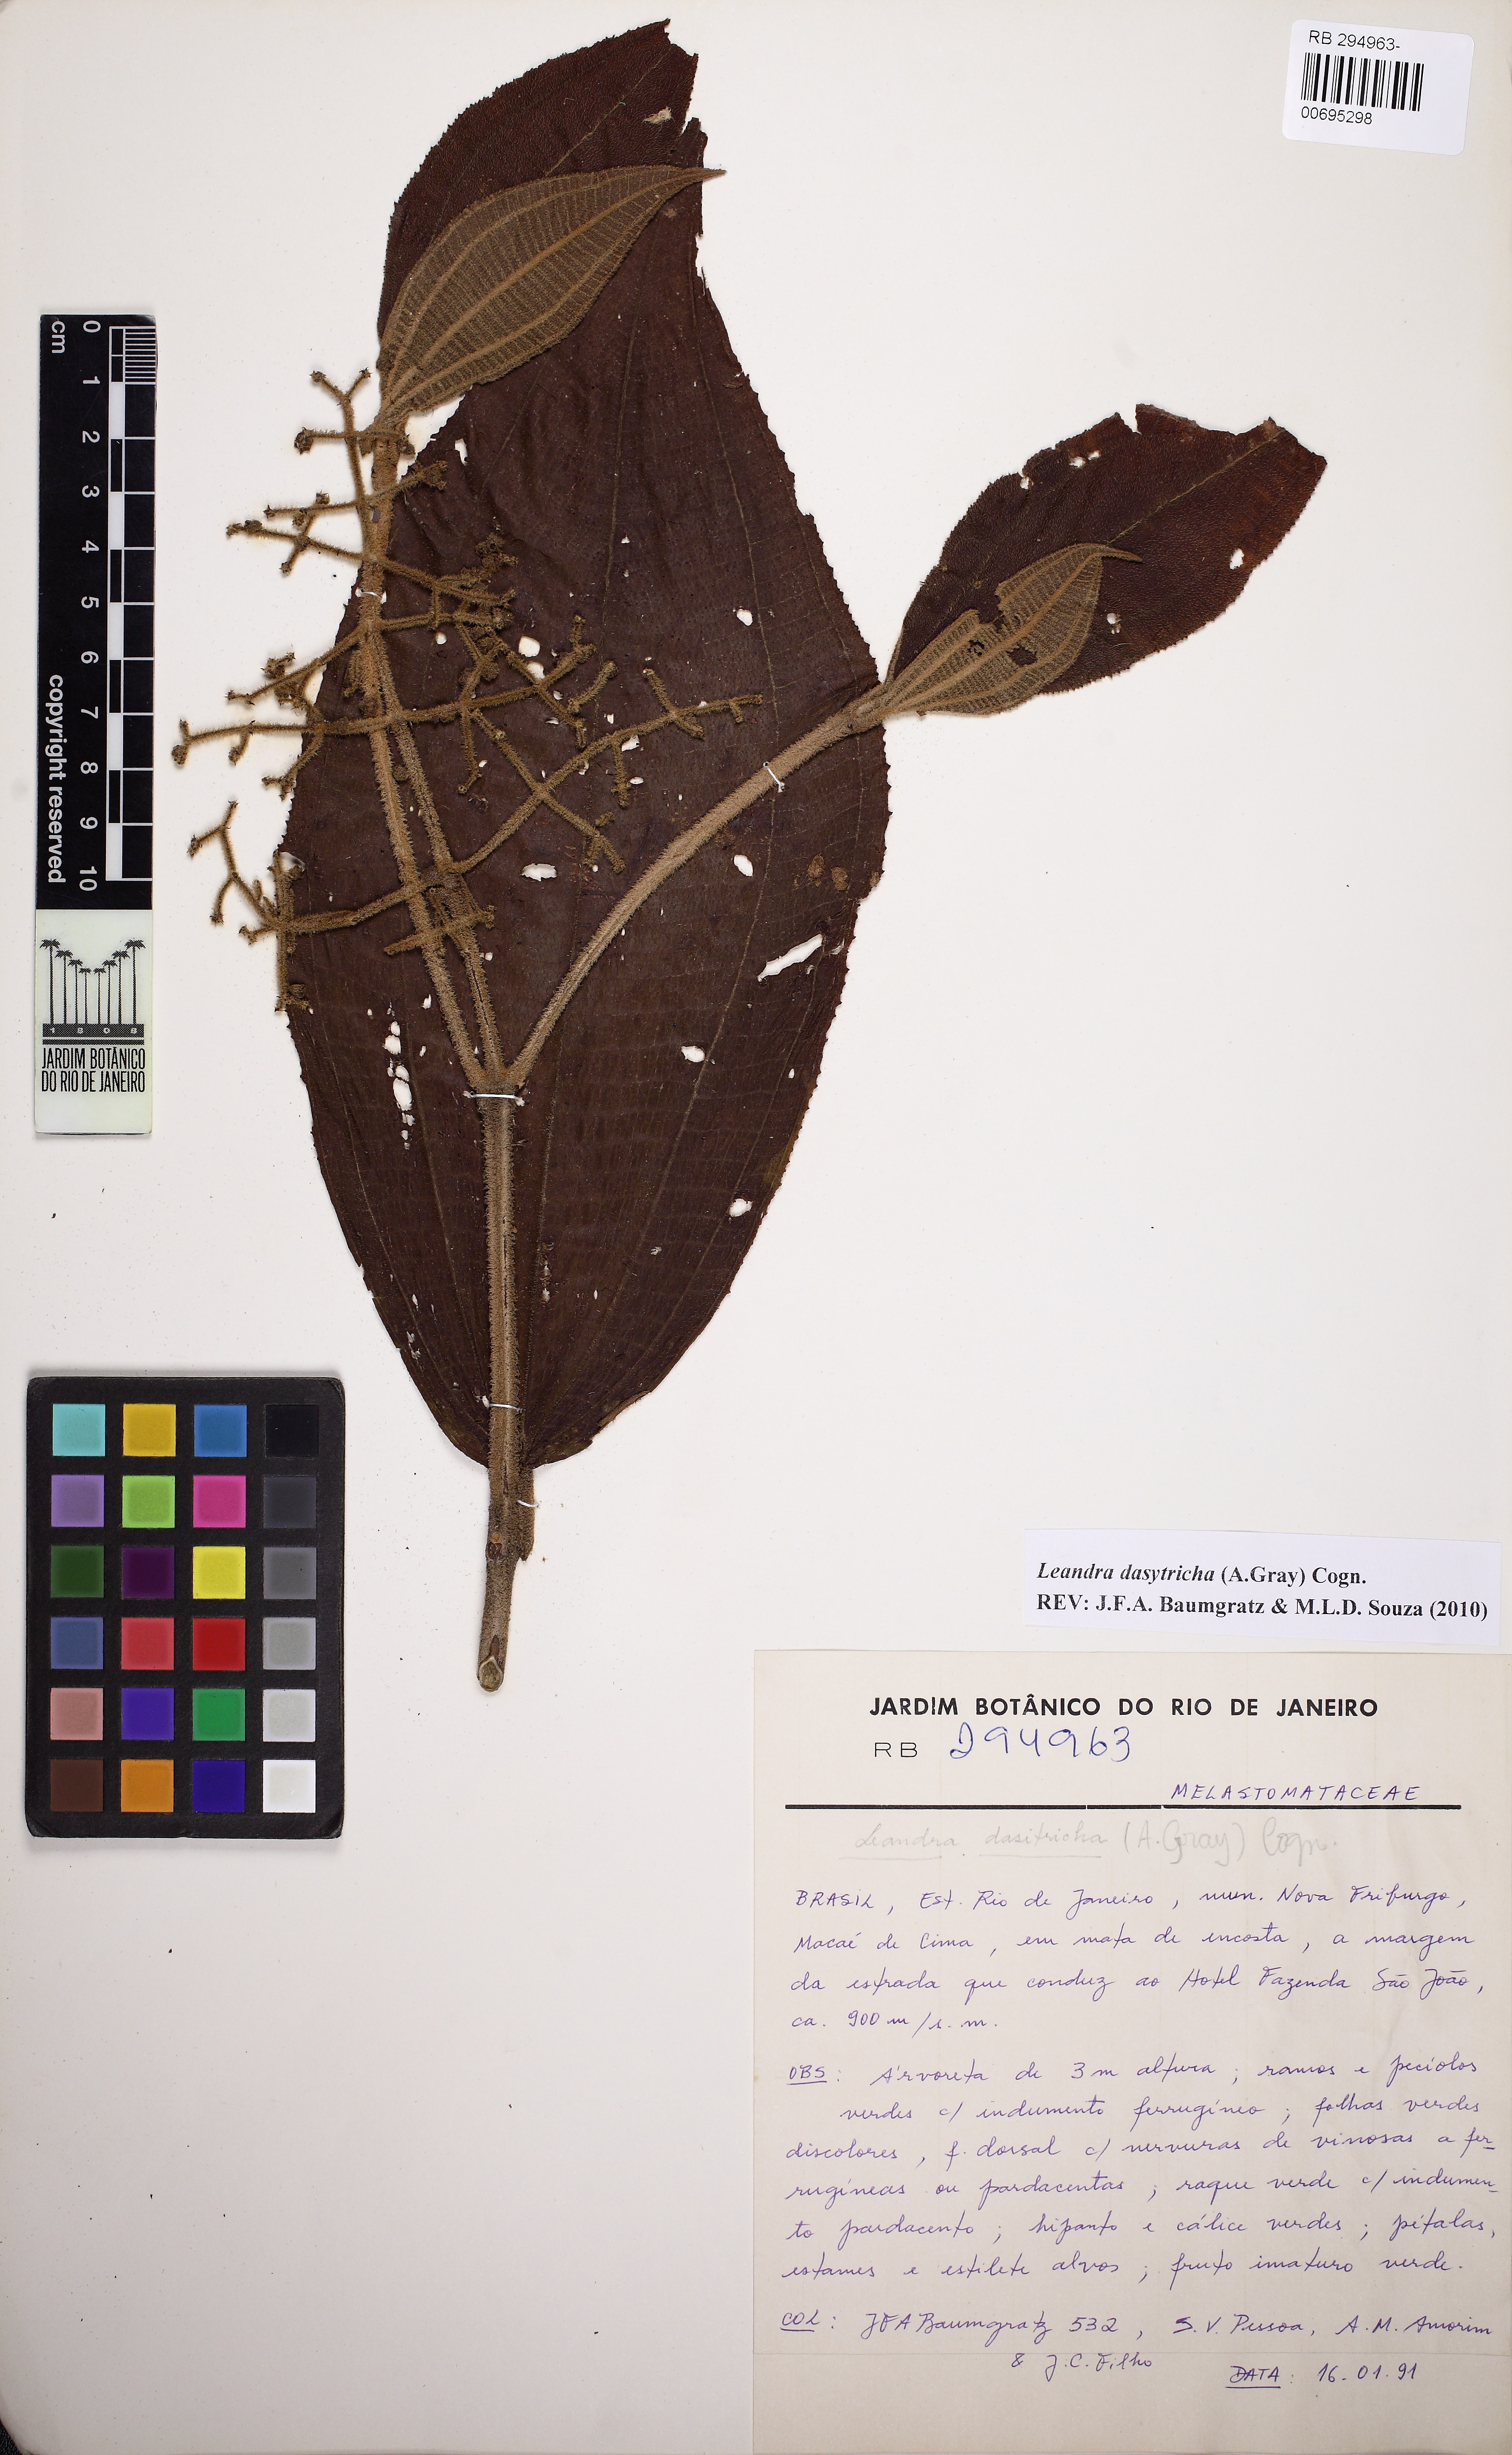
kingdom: Plantae
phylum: Tracheophyta
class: Magnoliopsida
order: Myrtales
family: Melastomataceae
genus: Miconia
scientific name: Miconia dasytricha
